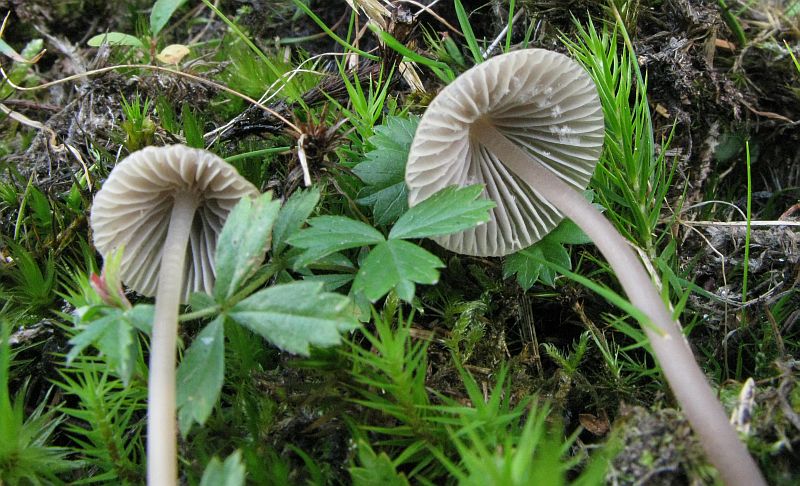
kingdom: Fungi
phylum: Basidiomycota
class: Agaricomycetes
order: Agaricales
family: Mycenaceae
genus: Mycena
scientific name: Mycena leptocephala
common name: klor-huesvamp
